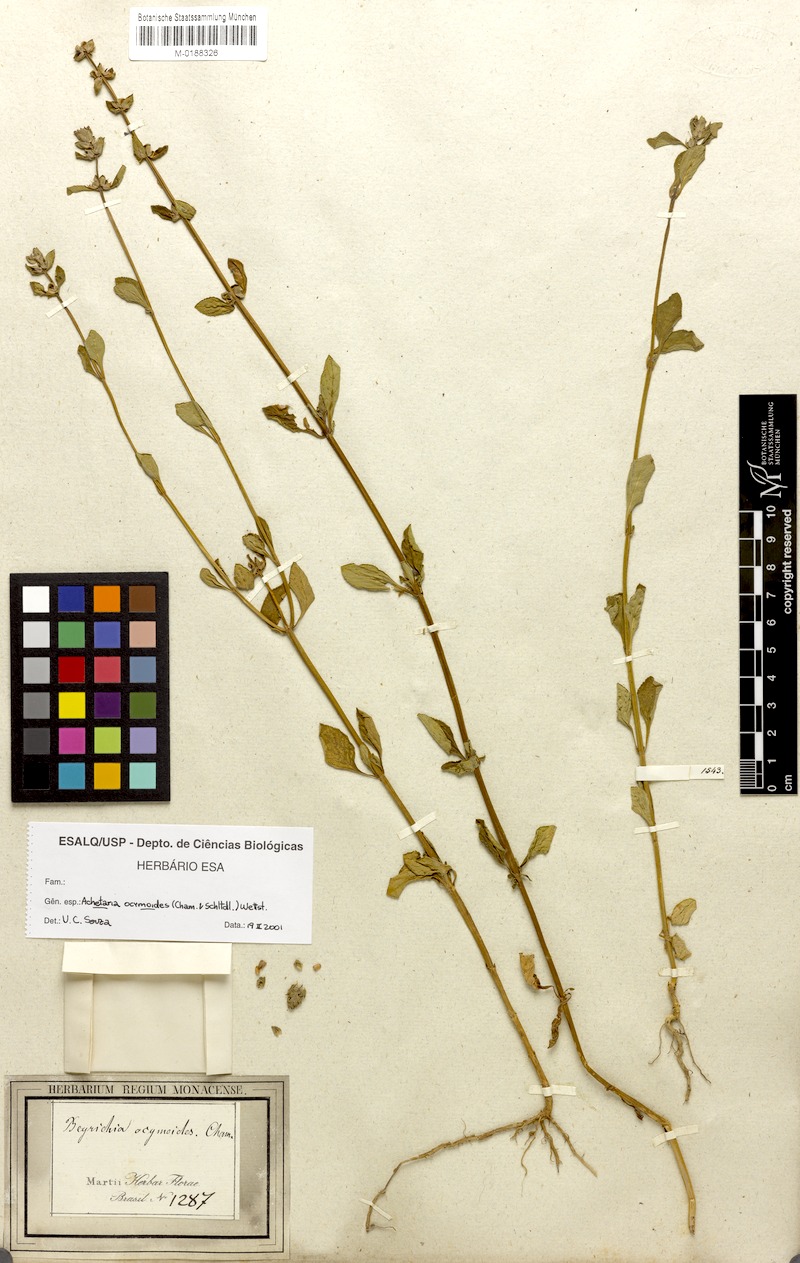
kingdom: Plantae
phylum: Tracheophyta
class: Magnoliopsida
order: Lamiales
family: Plantaginaceae
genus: Matourea
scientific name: Matourea ocymoides
